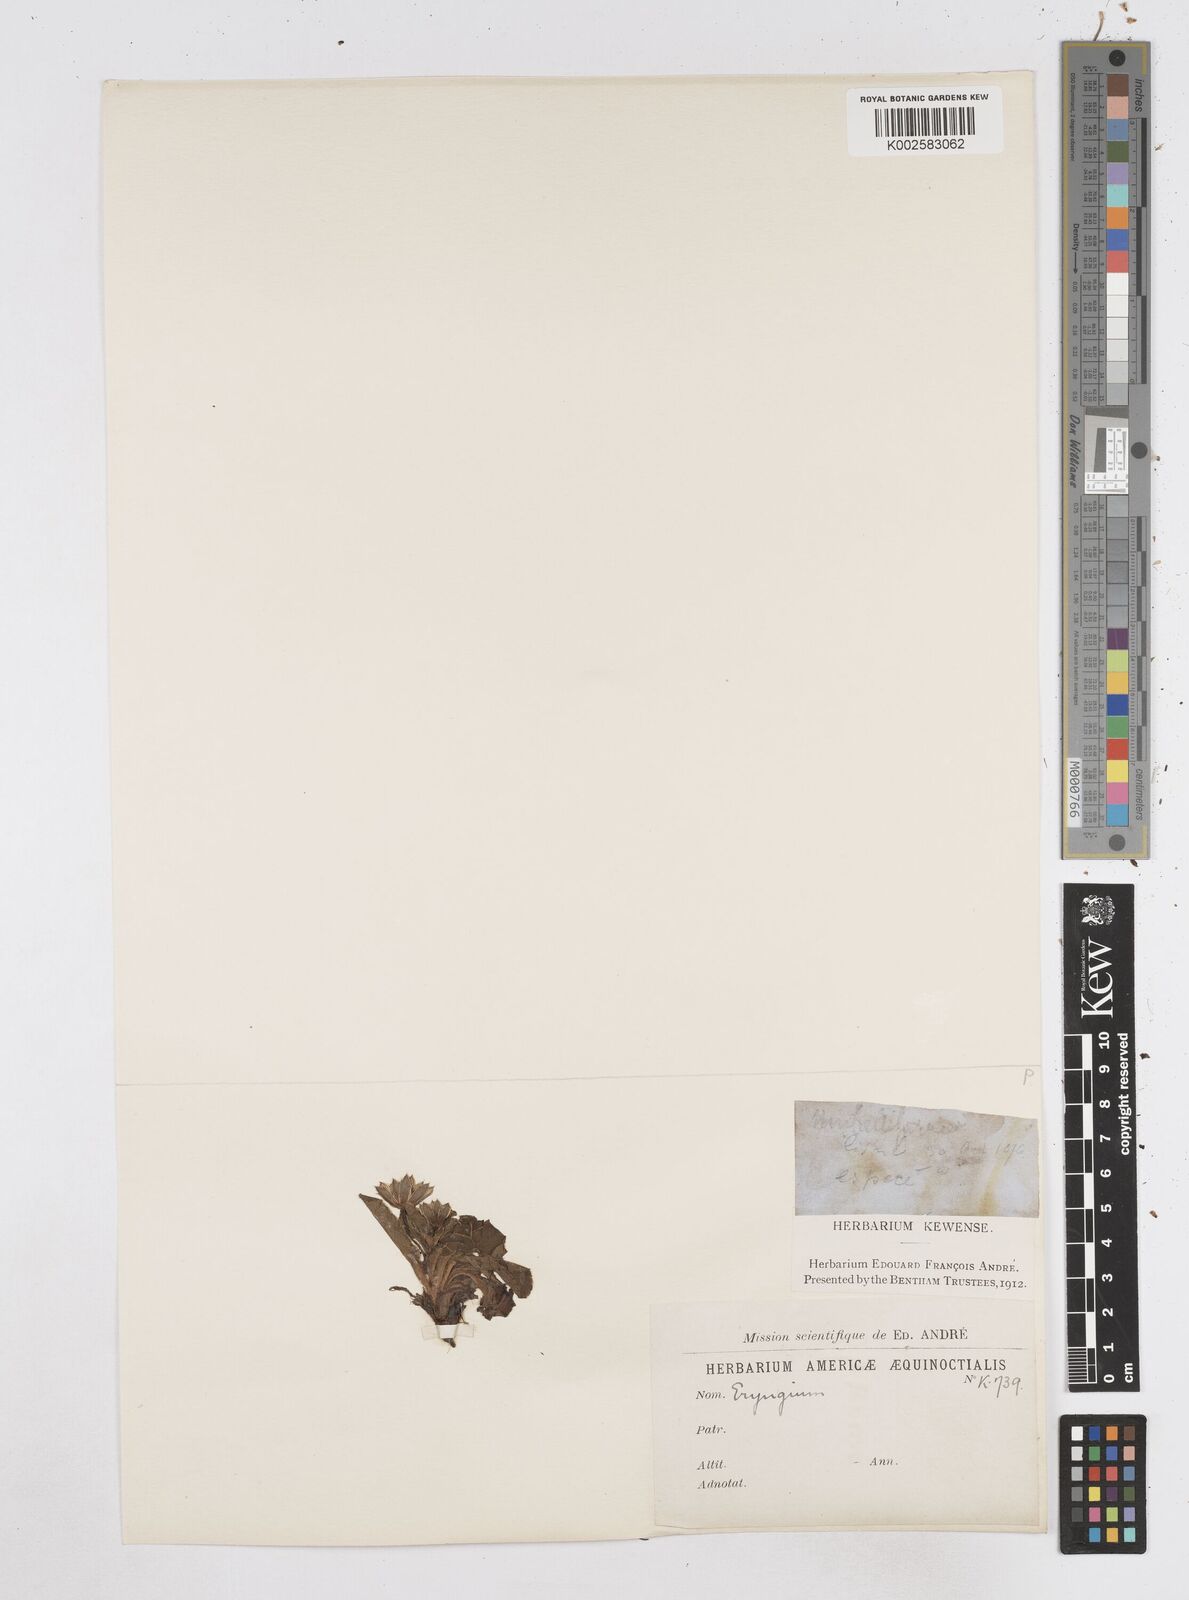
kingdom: Plantae
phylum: Tracheophyta
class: Magnoliopsida
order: Apiales
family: Apiaceae
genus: Eryngium
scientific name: Eryngium humile
